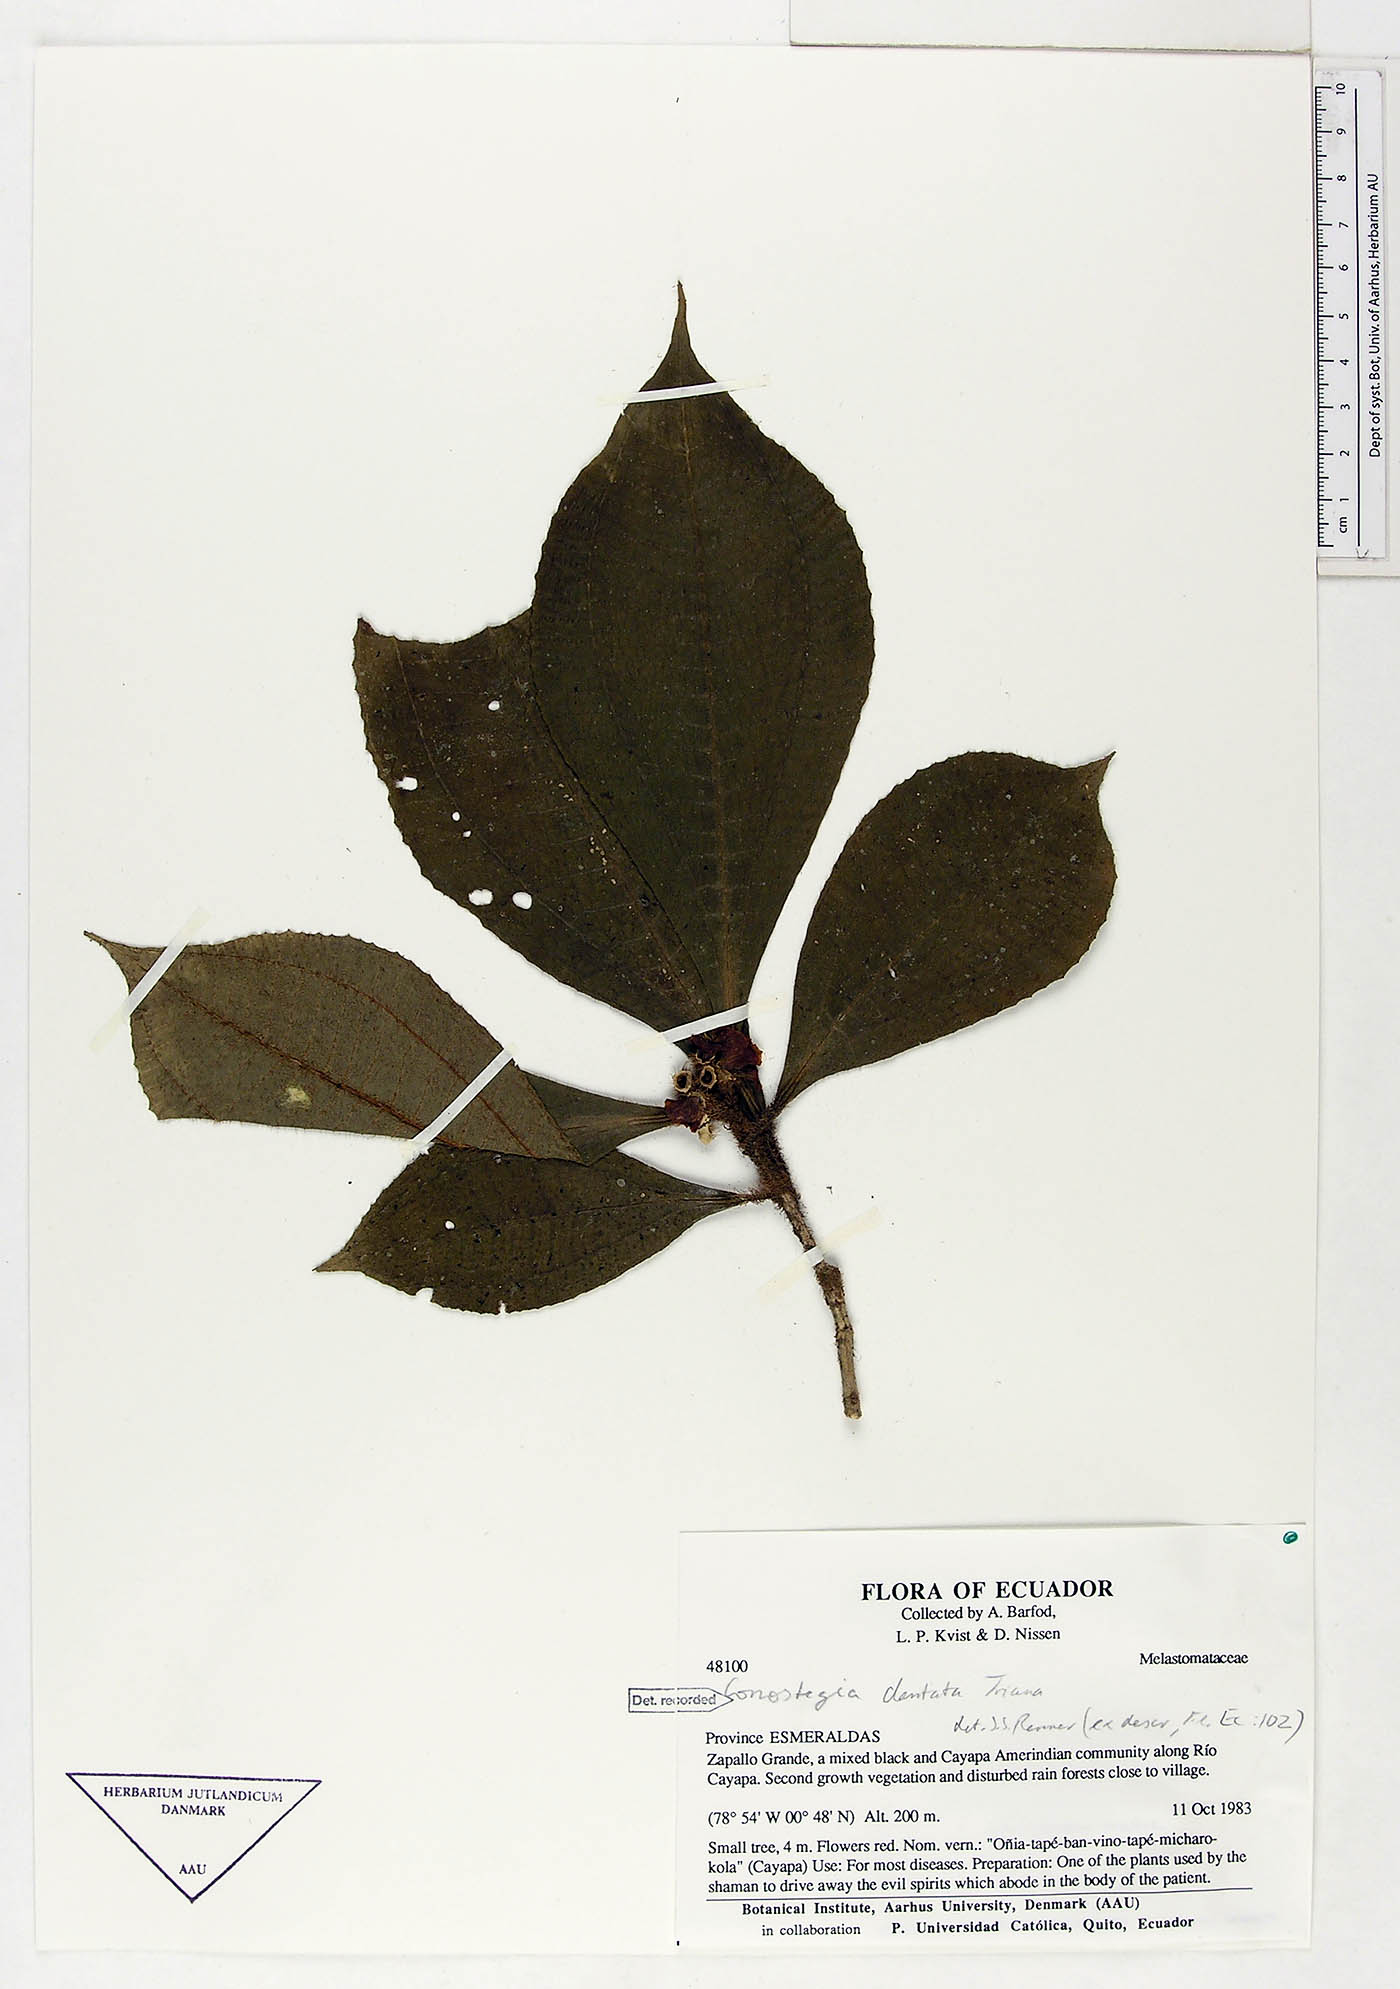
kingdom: Plantae
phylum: Tracheophyta
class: Magnoliopsida
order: Myrtales
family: Melastomataceae
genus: Miconia
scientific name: Miconia conodentata
